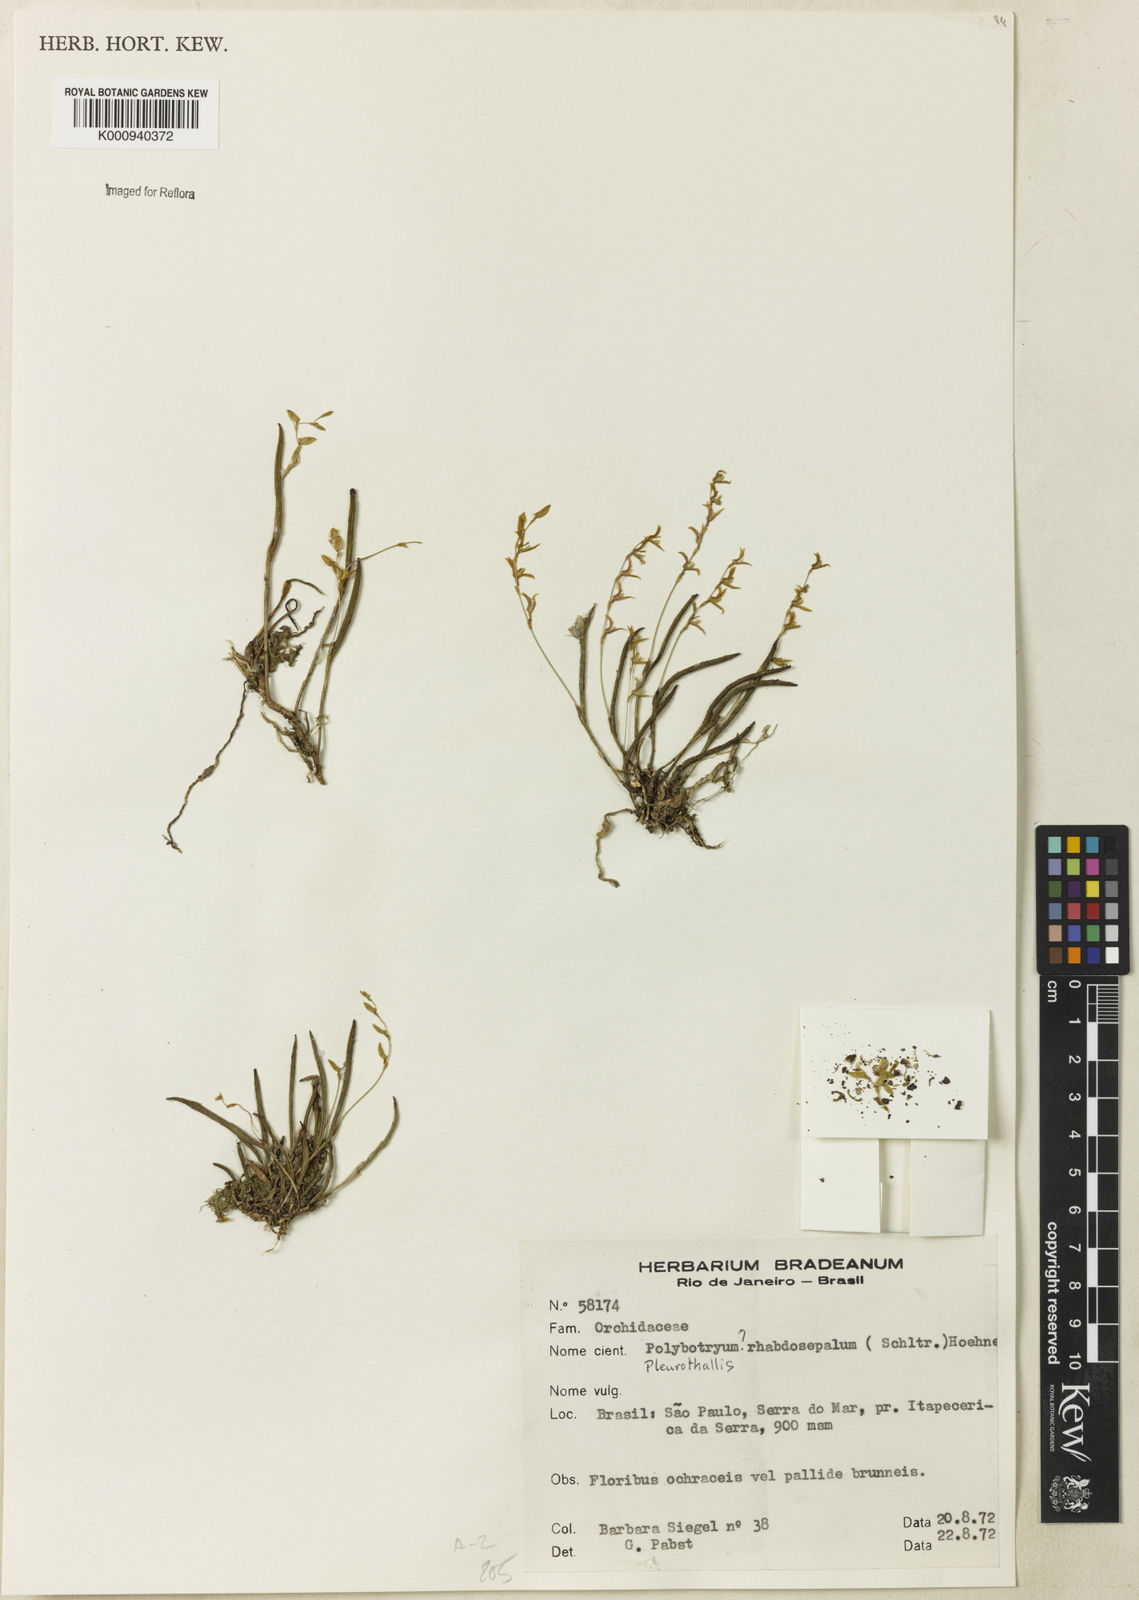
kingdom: Plantae
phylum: Tracheophyta
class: Liliopsida
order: Asparagales
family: Orchidaceae
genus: Pleurothallis
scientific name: Pleurothallis mantiquyrana
